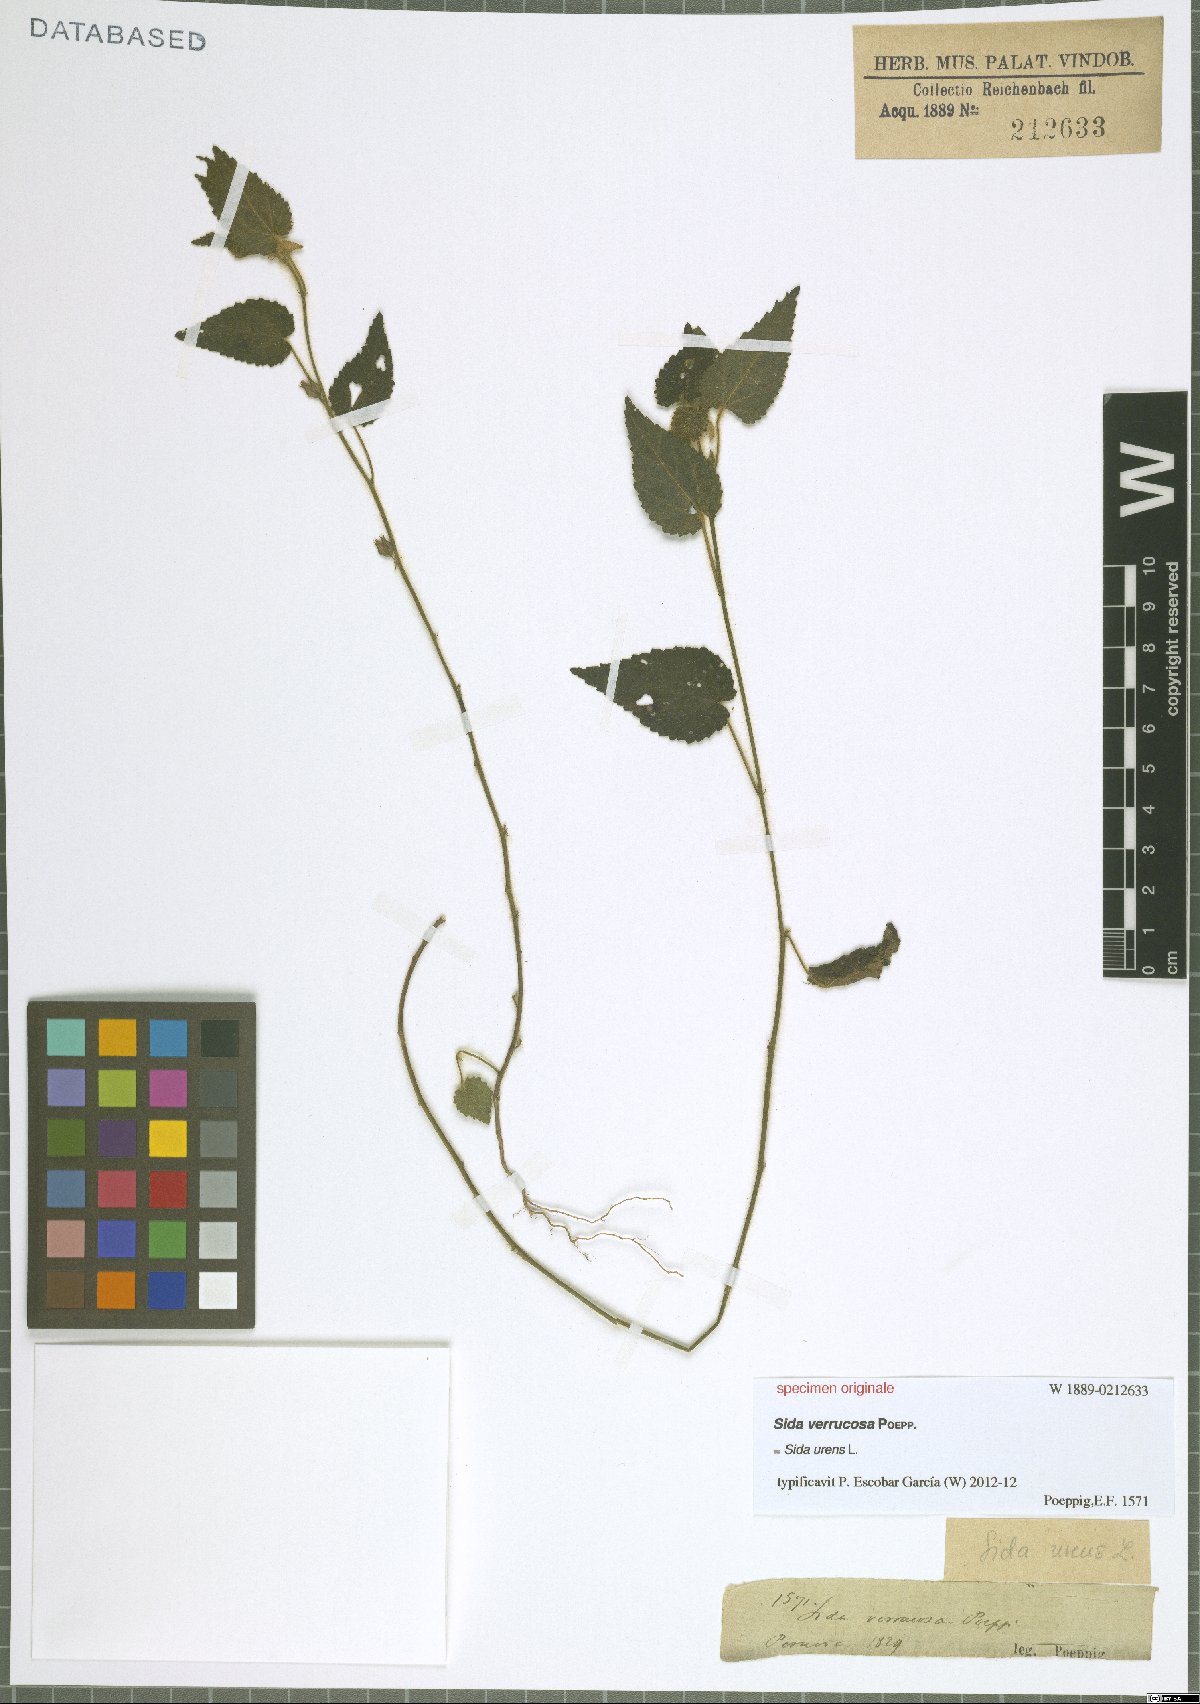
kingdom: Plantae
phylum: Tracheophyta
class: Magnoliopsida
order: Malvales
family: Malvaceae
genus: Sida
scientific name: Sida urens
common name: Tropical fanpetals
